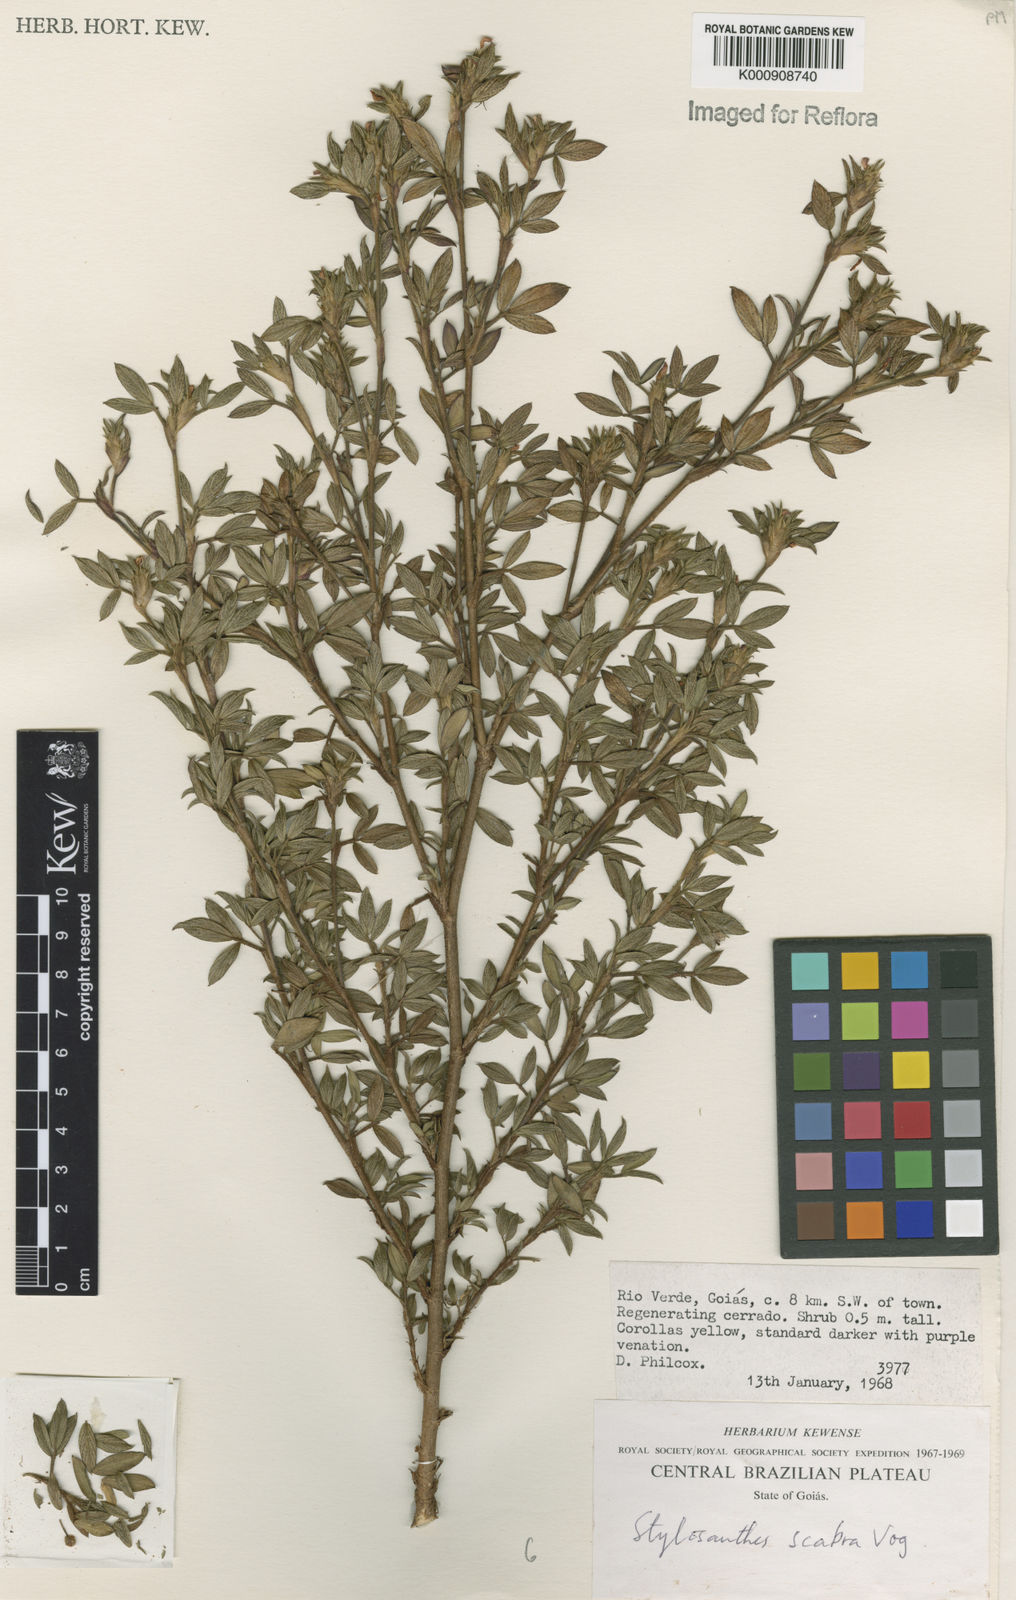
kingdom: Plantae
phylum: Tracheophyta
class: Magnoliopsida
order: Fabales
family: Fabaceae
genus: Stylosanthes
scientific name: Stylosanthes scabra
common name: Pencilflower
